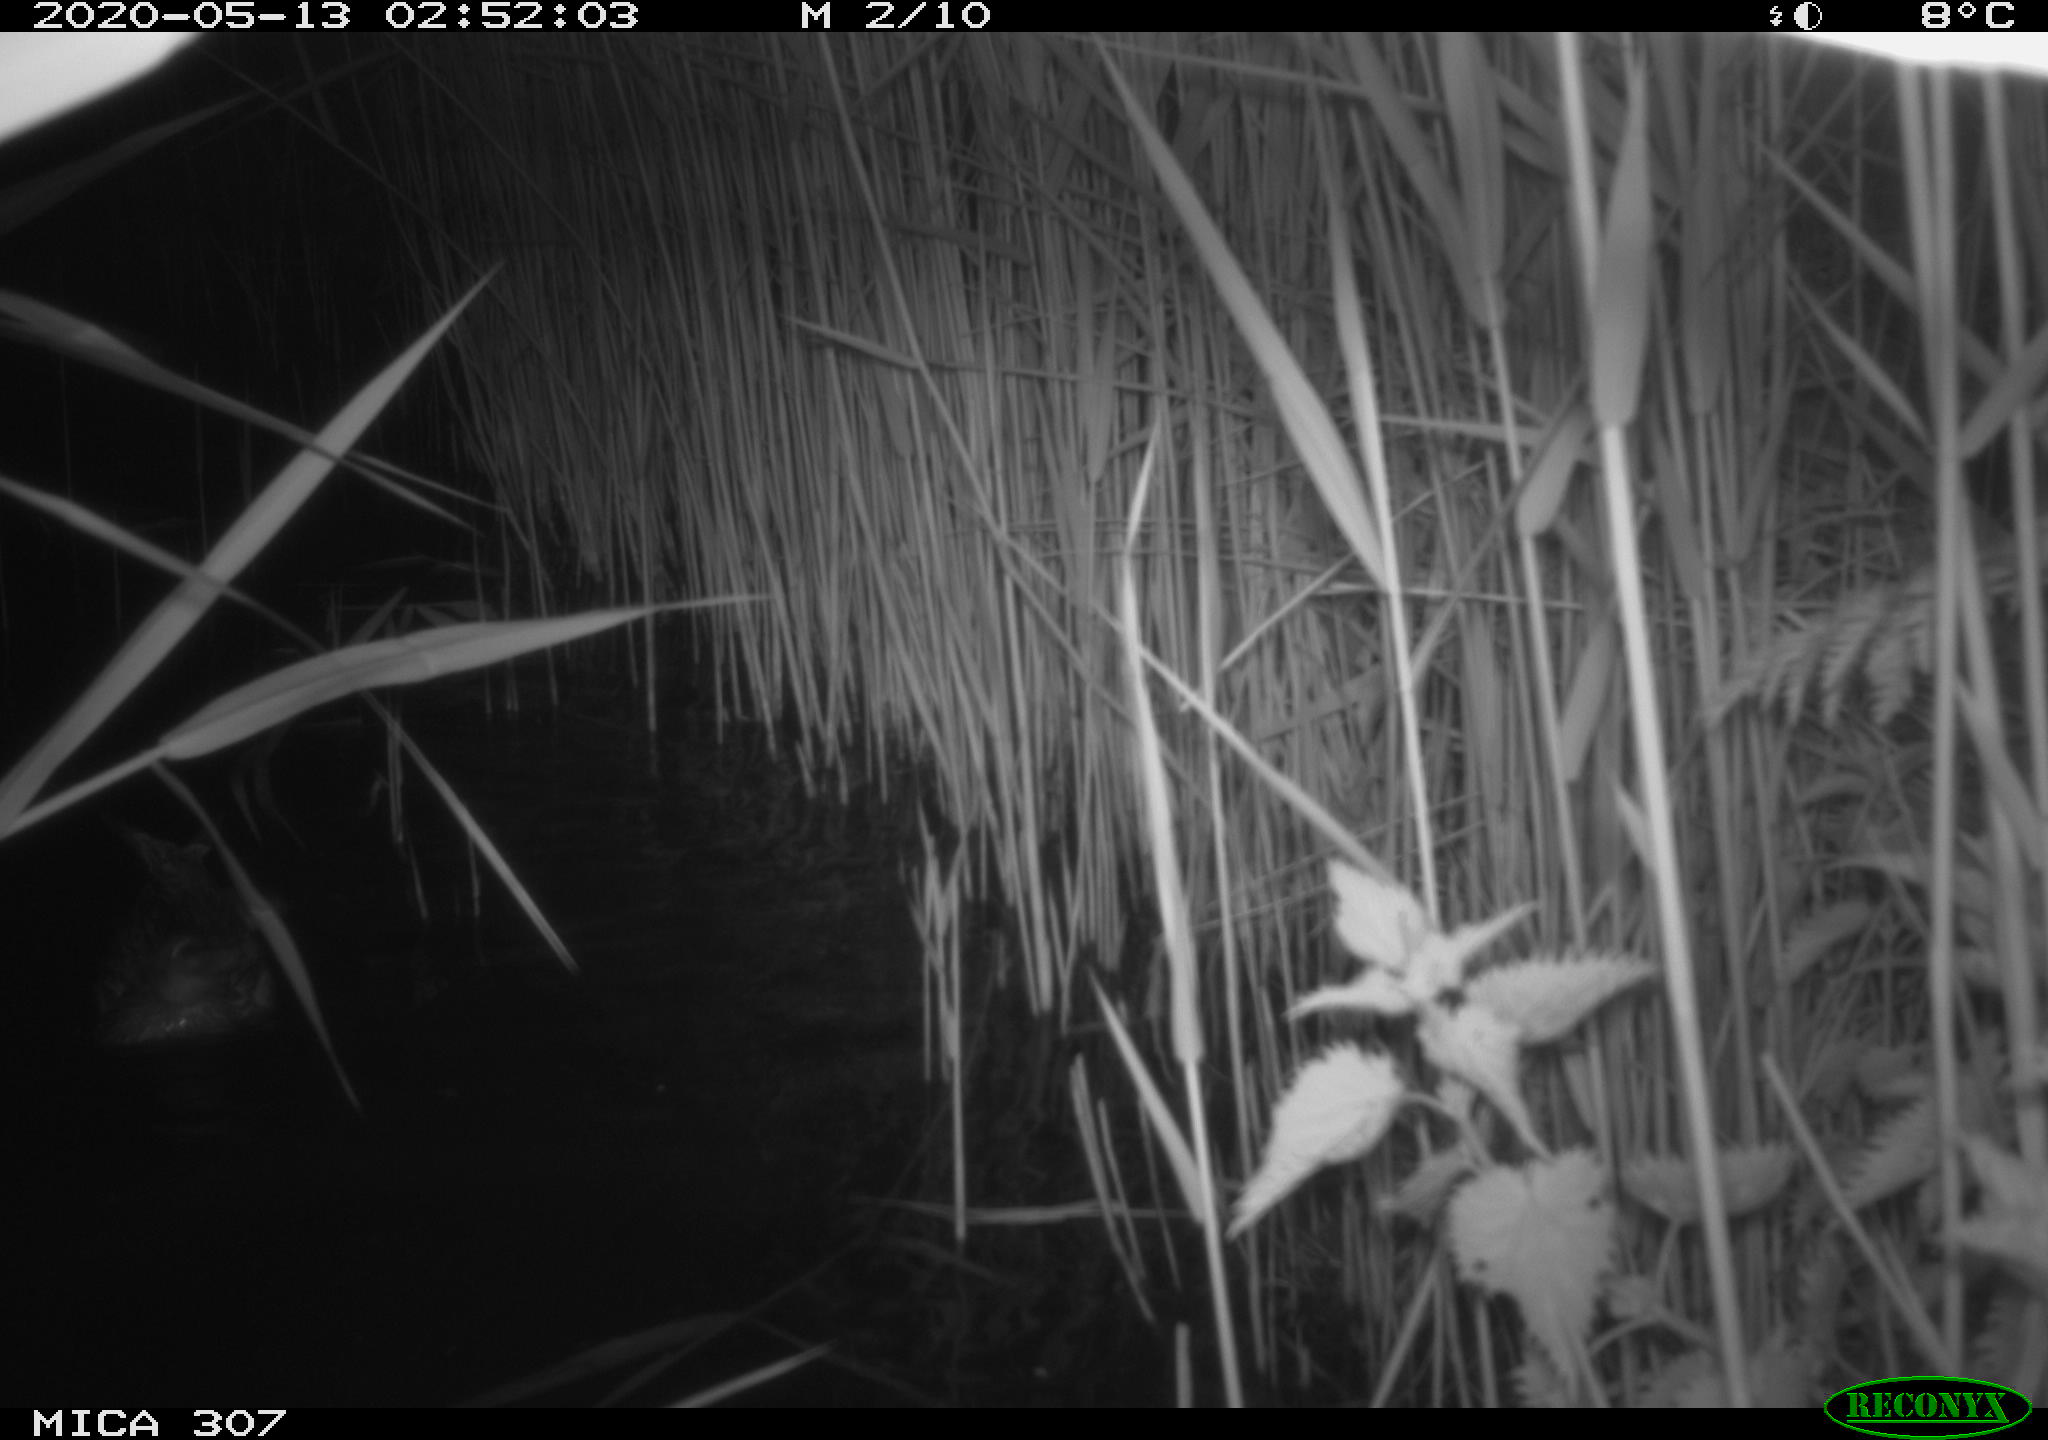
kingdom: Animalia
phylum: Chordata
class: Aves
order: Anseriformes
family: Anatidae
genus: Anas
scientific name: Anas platyrhynchos
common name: Mallard
